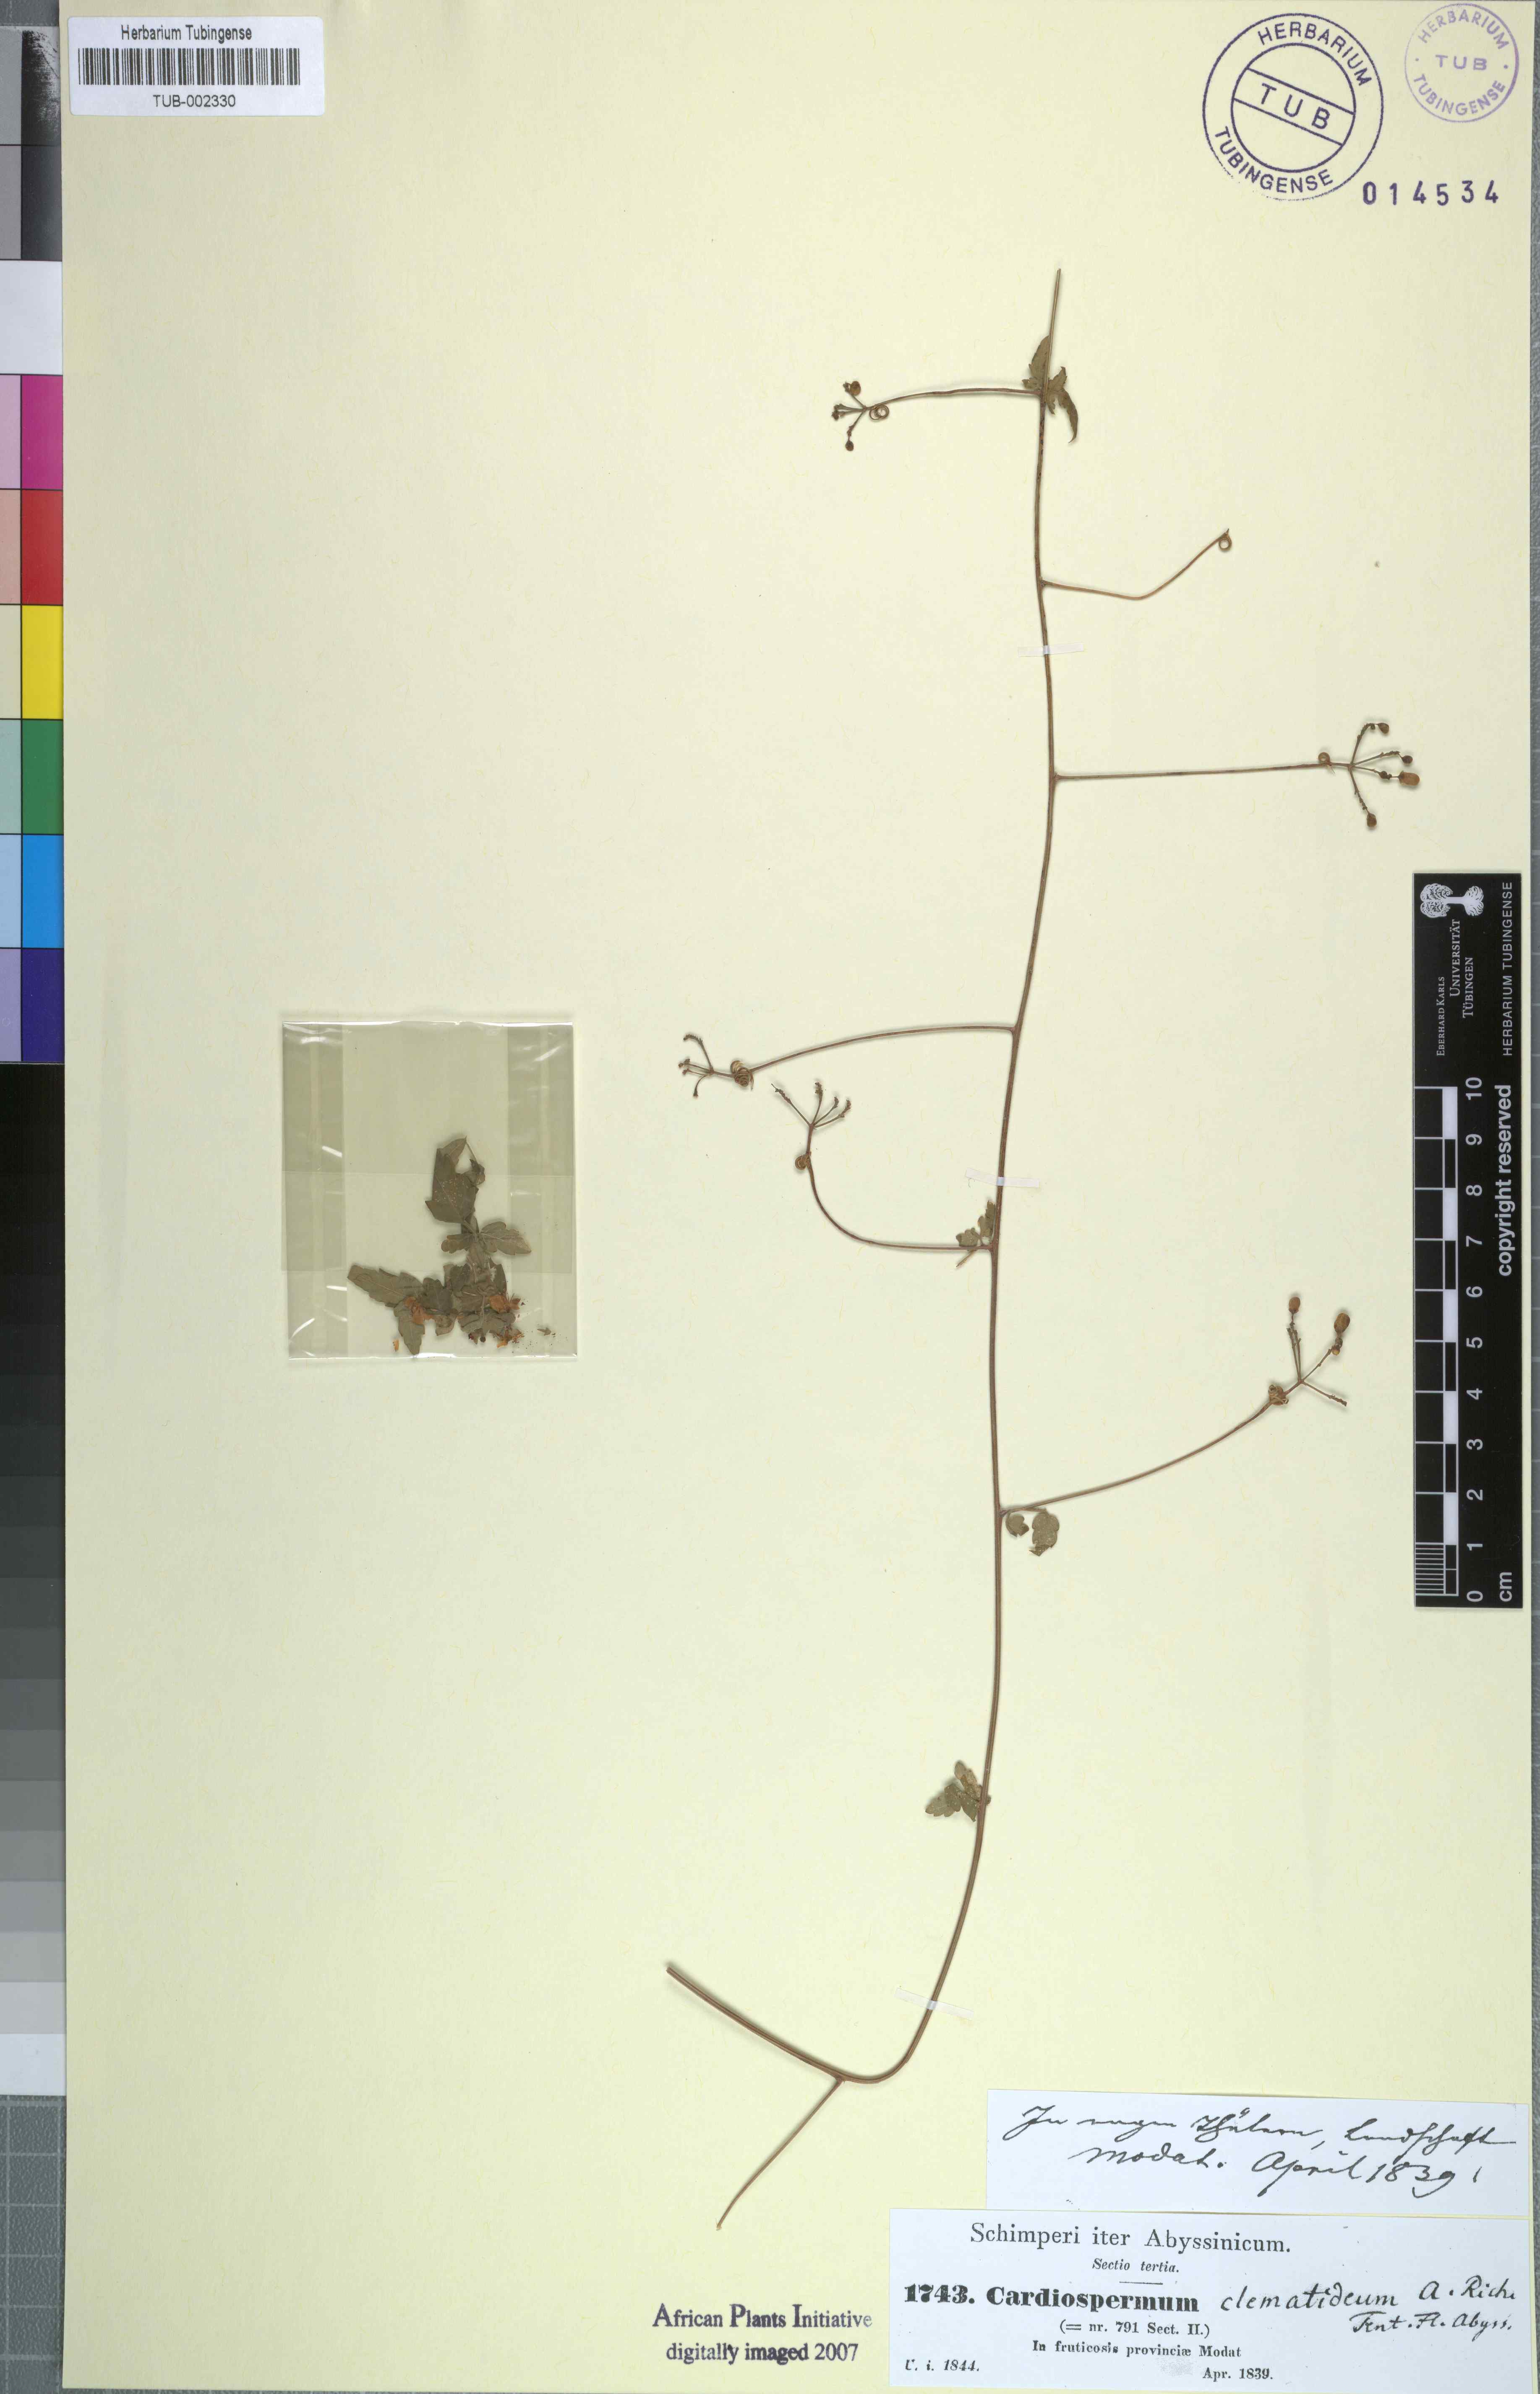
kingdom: Plantae
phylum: Tracheophyta
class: Magnoliopsida
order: Sapindales
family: Sapindaceae
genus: Cardiospermum
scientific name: Cardiospermum corindum
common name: Faux persil
